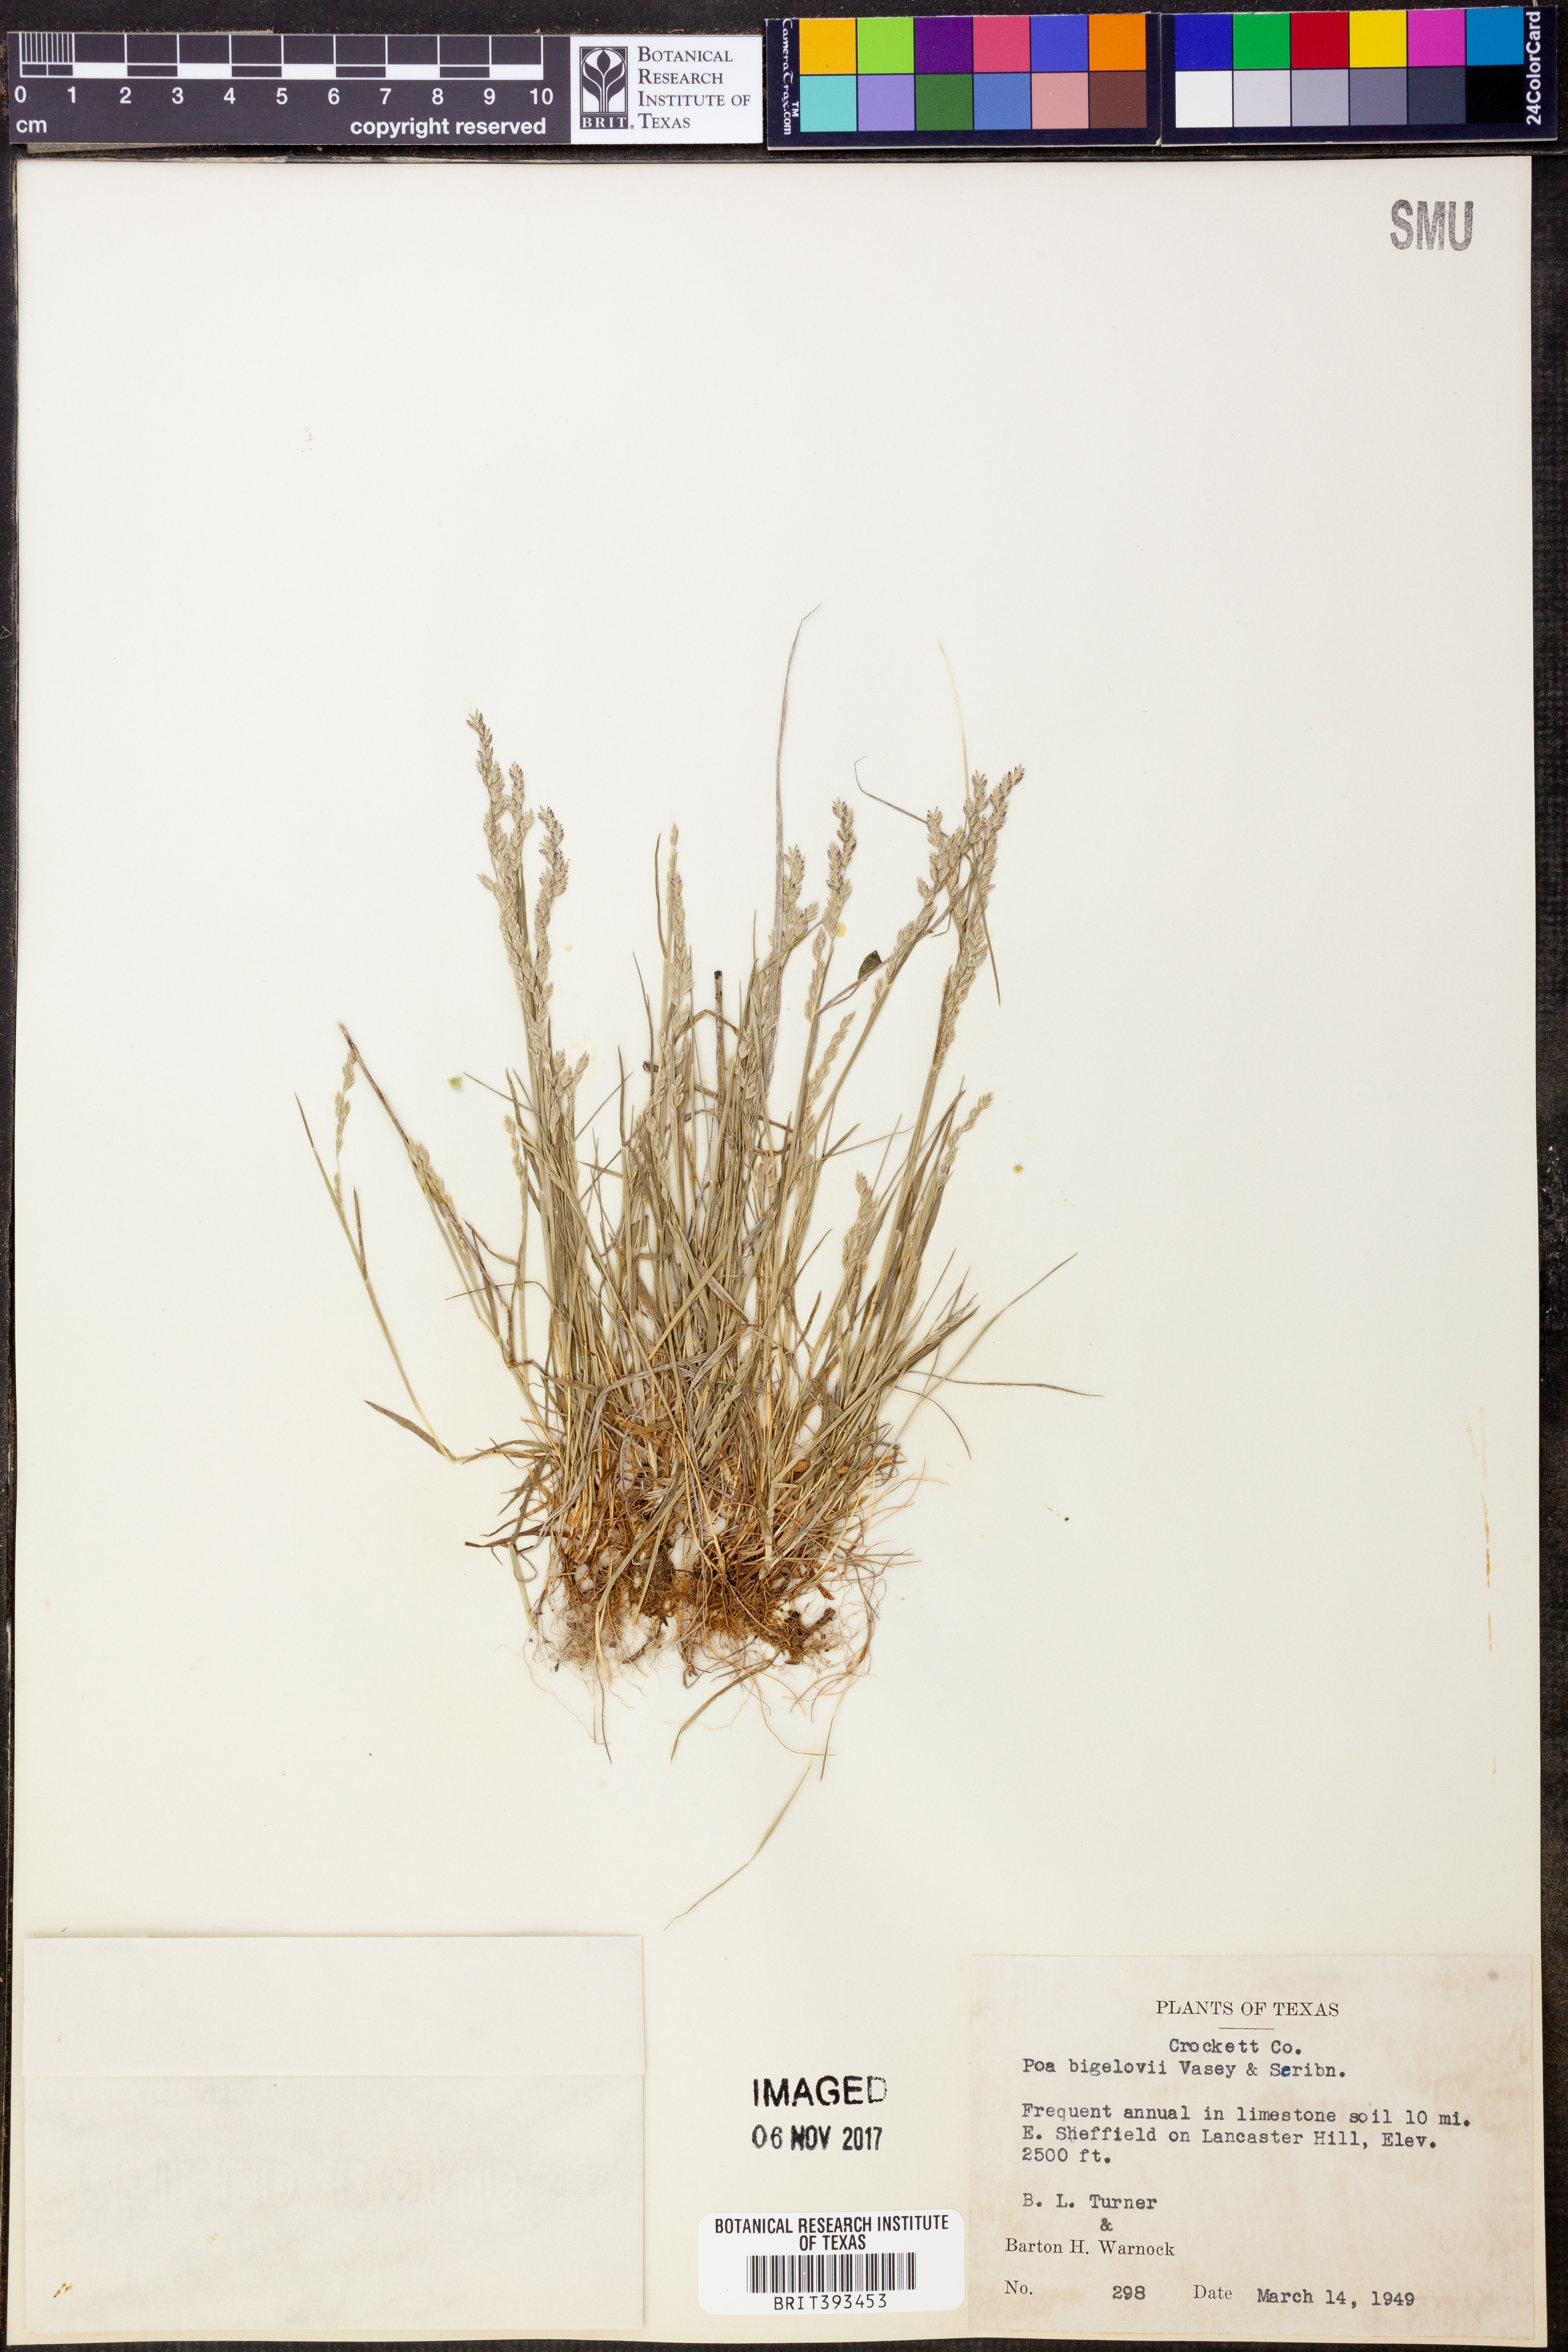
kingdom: Plantae
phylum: Tracheophyta
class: Liliopsida
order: Poales
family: Poaceae
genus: Poa
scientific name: Poa bigelovii
